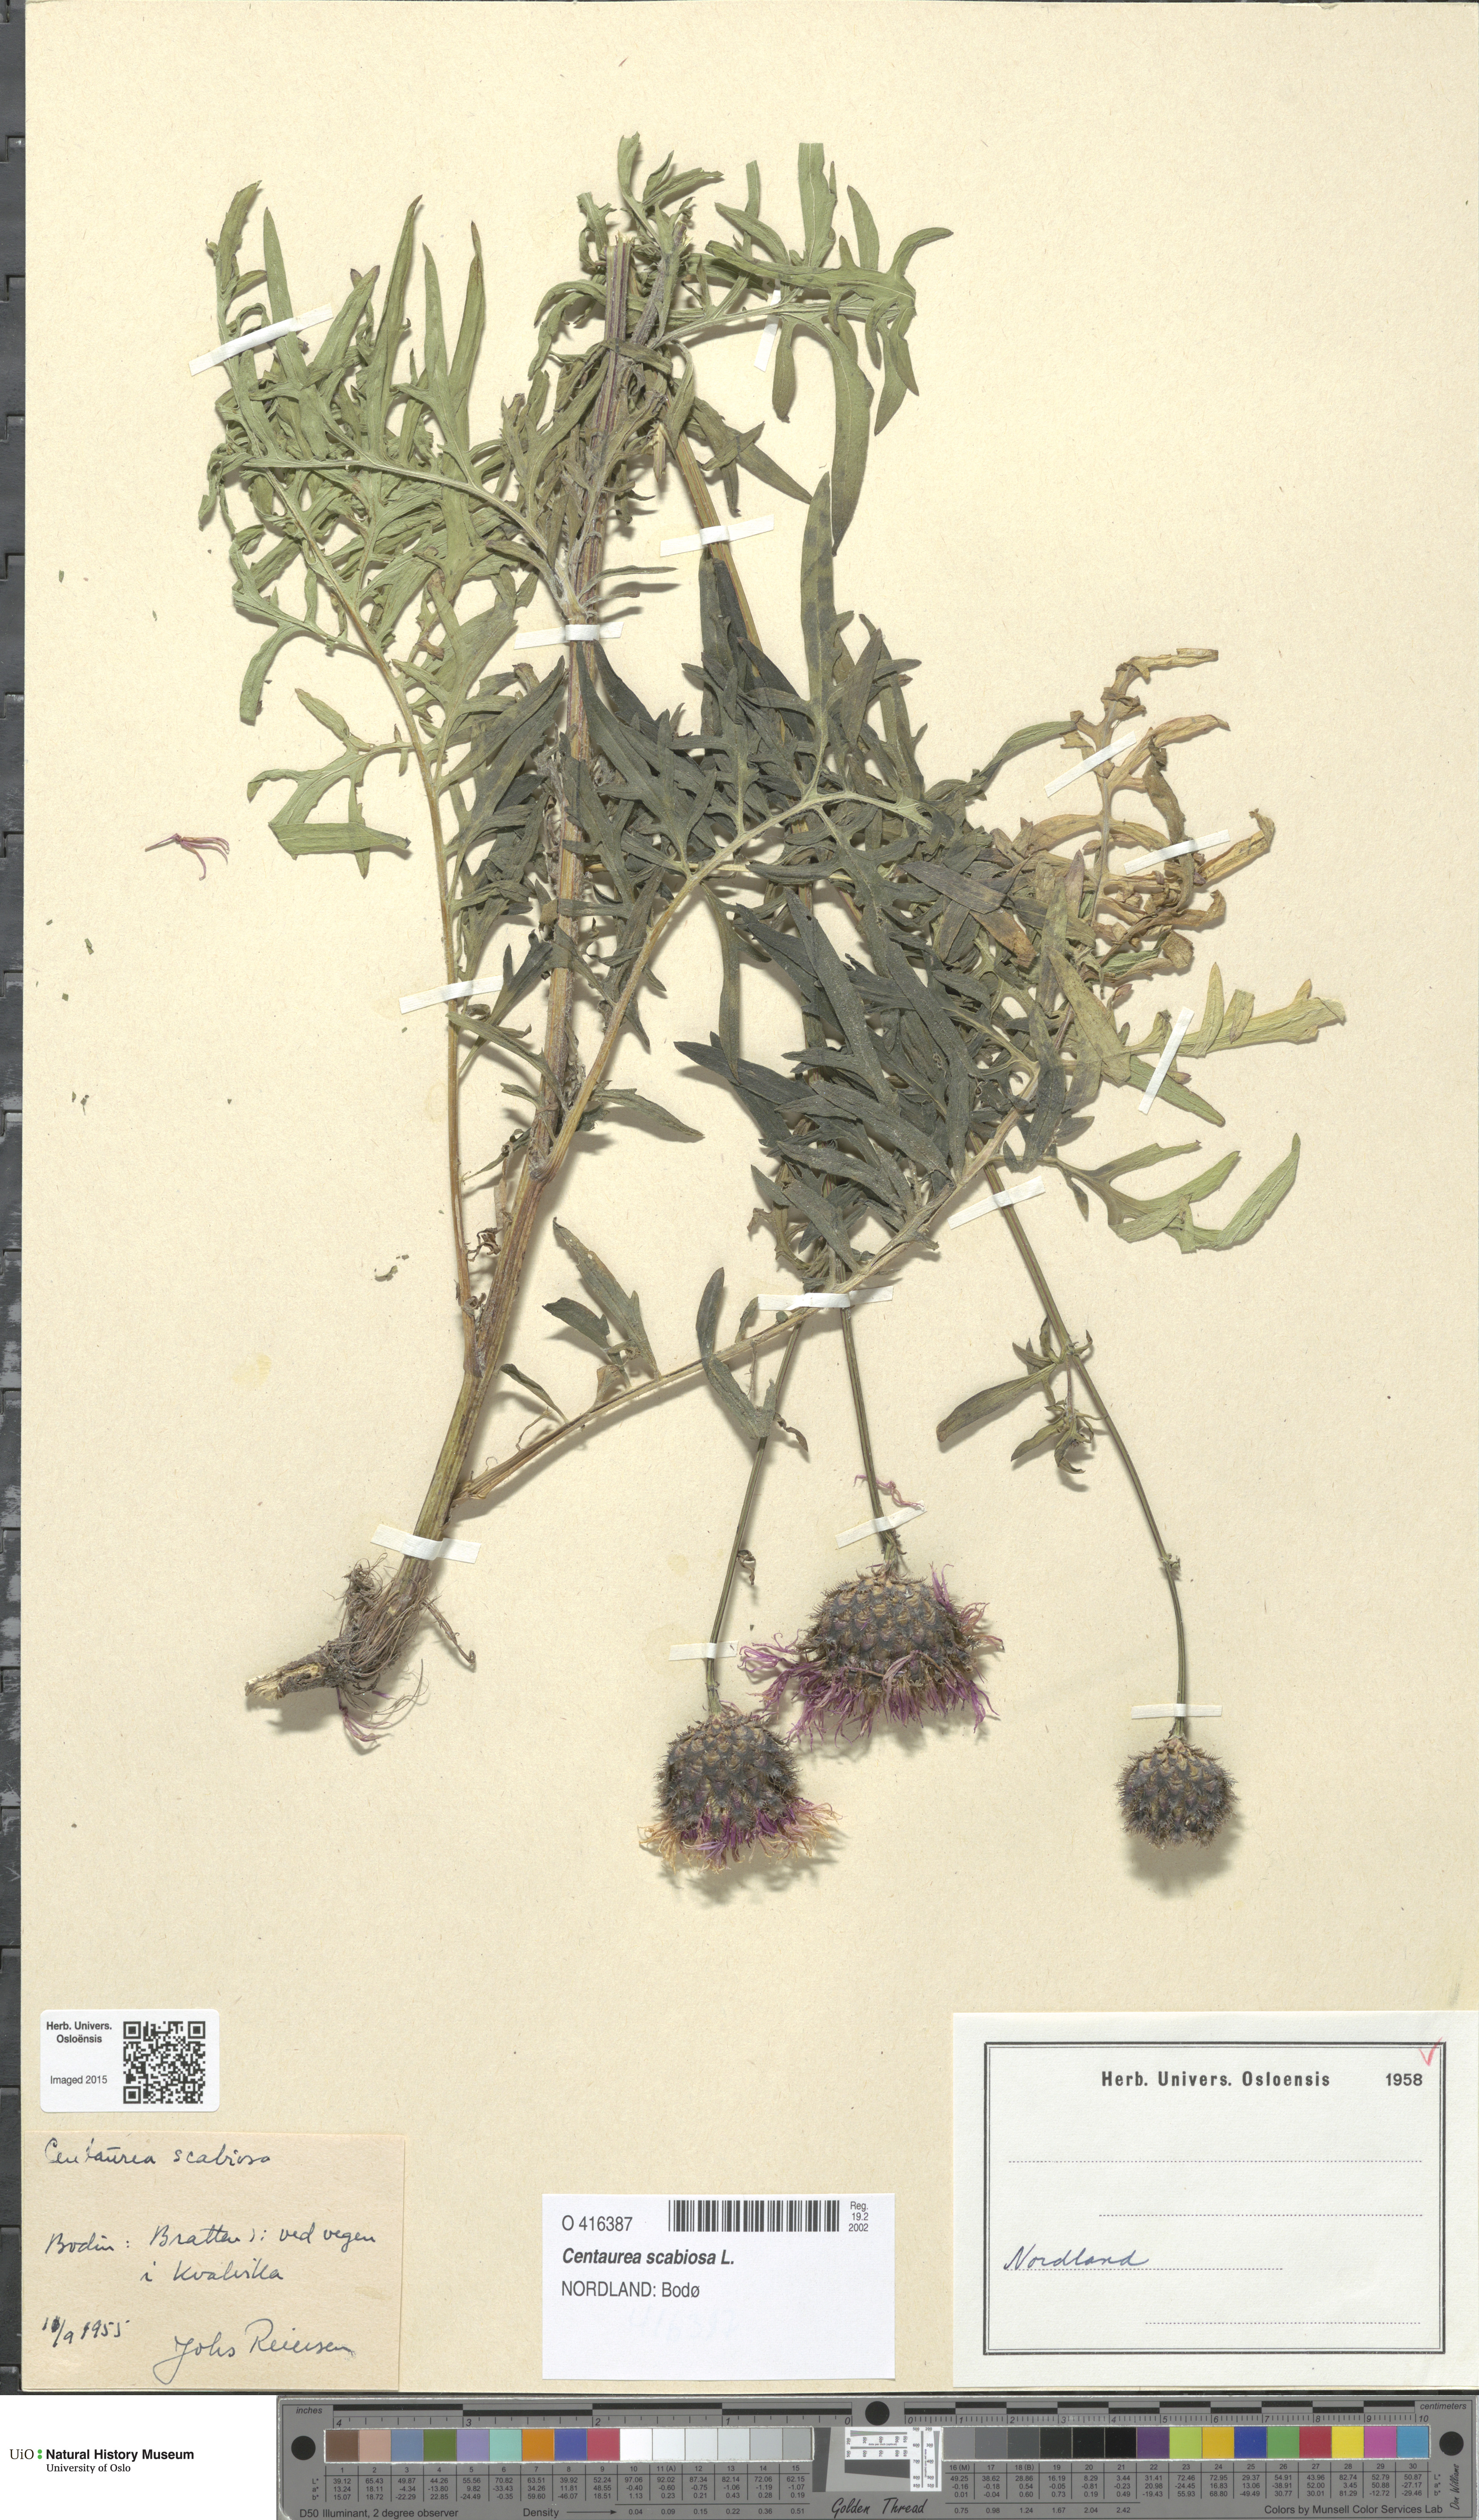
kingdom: Plantae
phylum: Tracheophyta
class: Magnoliopsida
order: Asterales
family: Asteraceae
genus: Centaurea
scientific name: Centaurea scabiosa
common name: Greater knapweed
